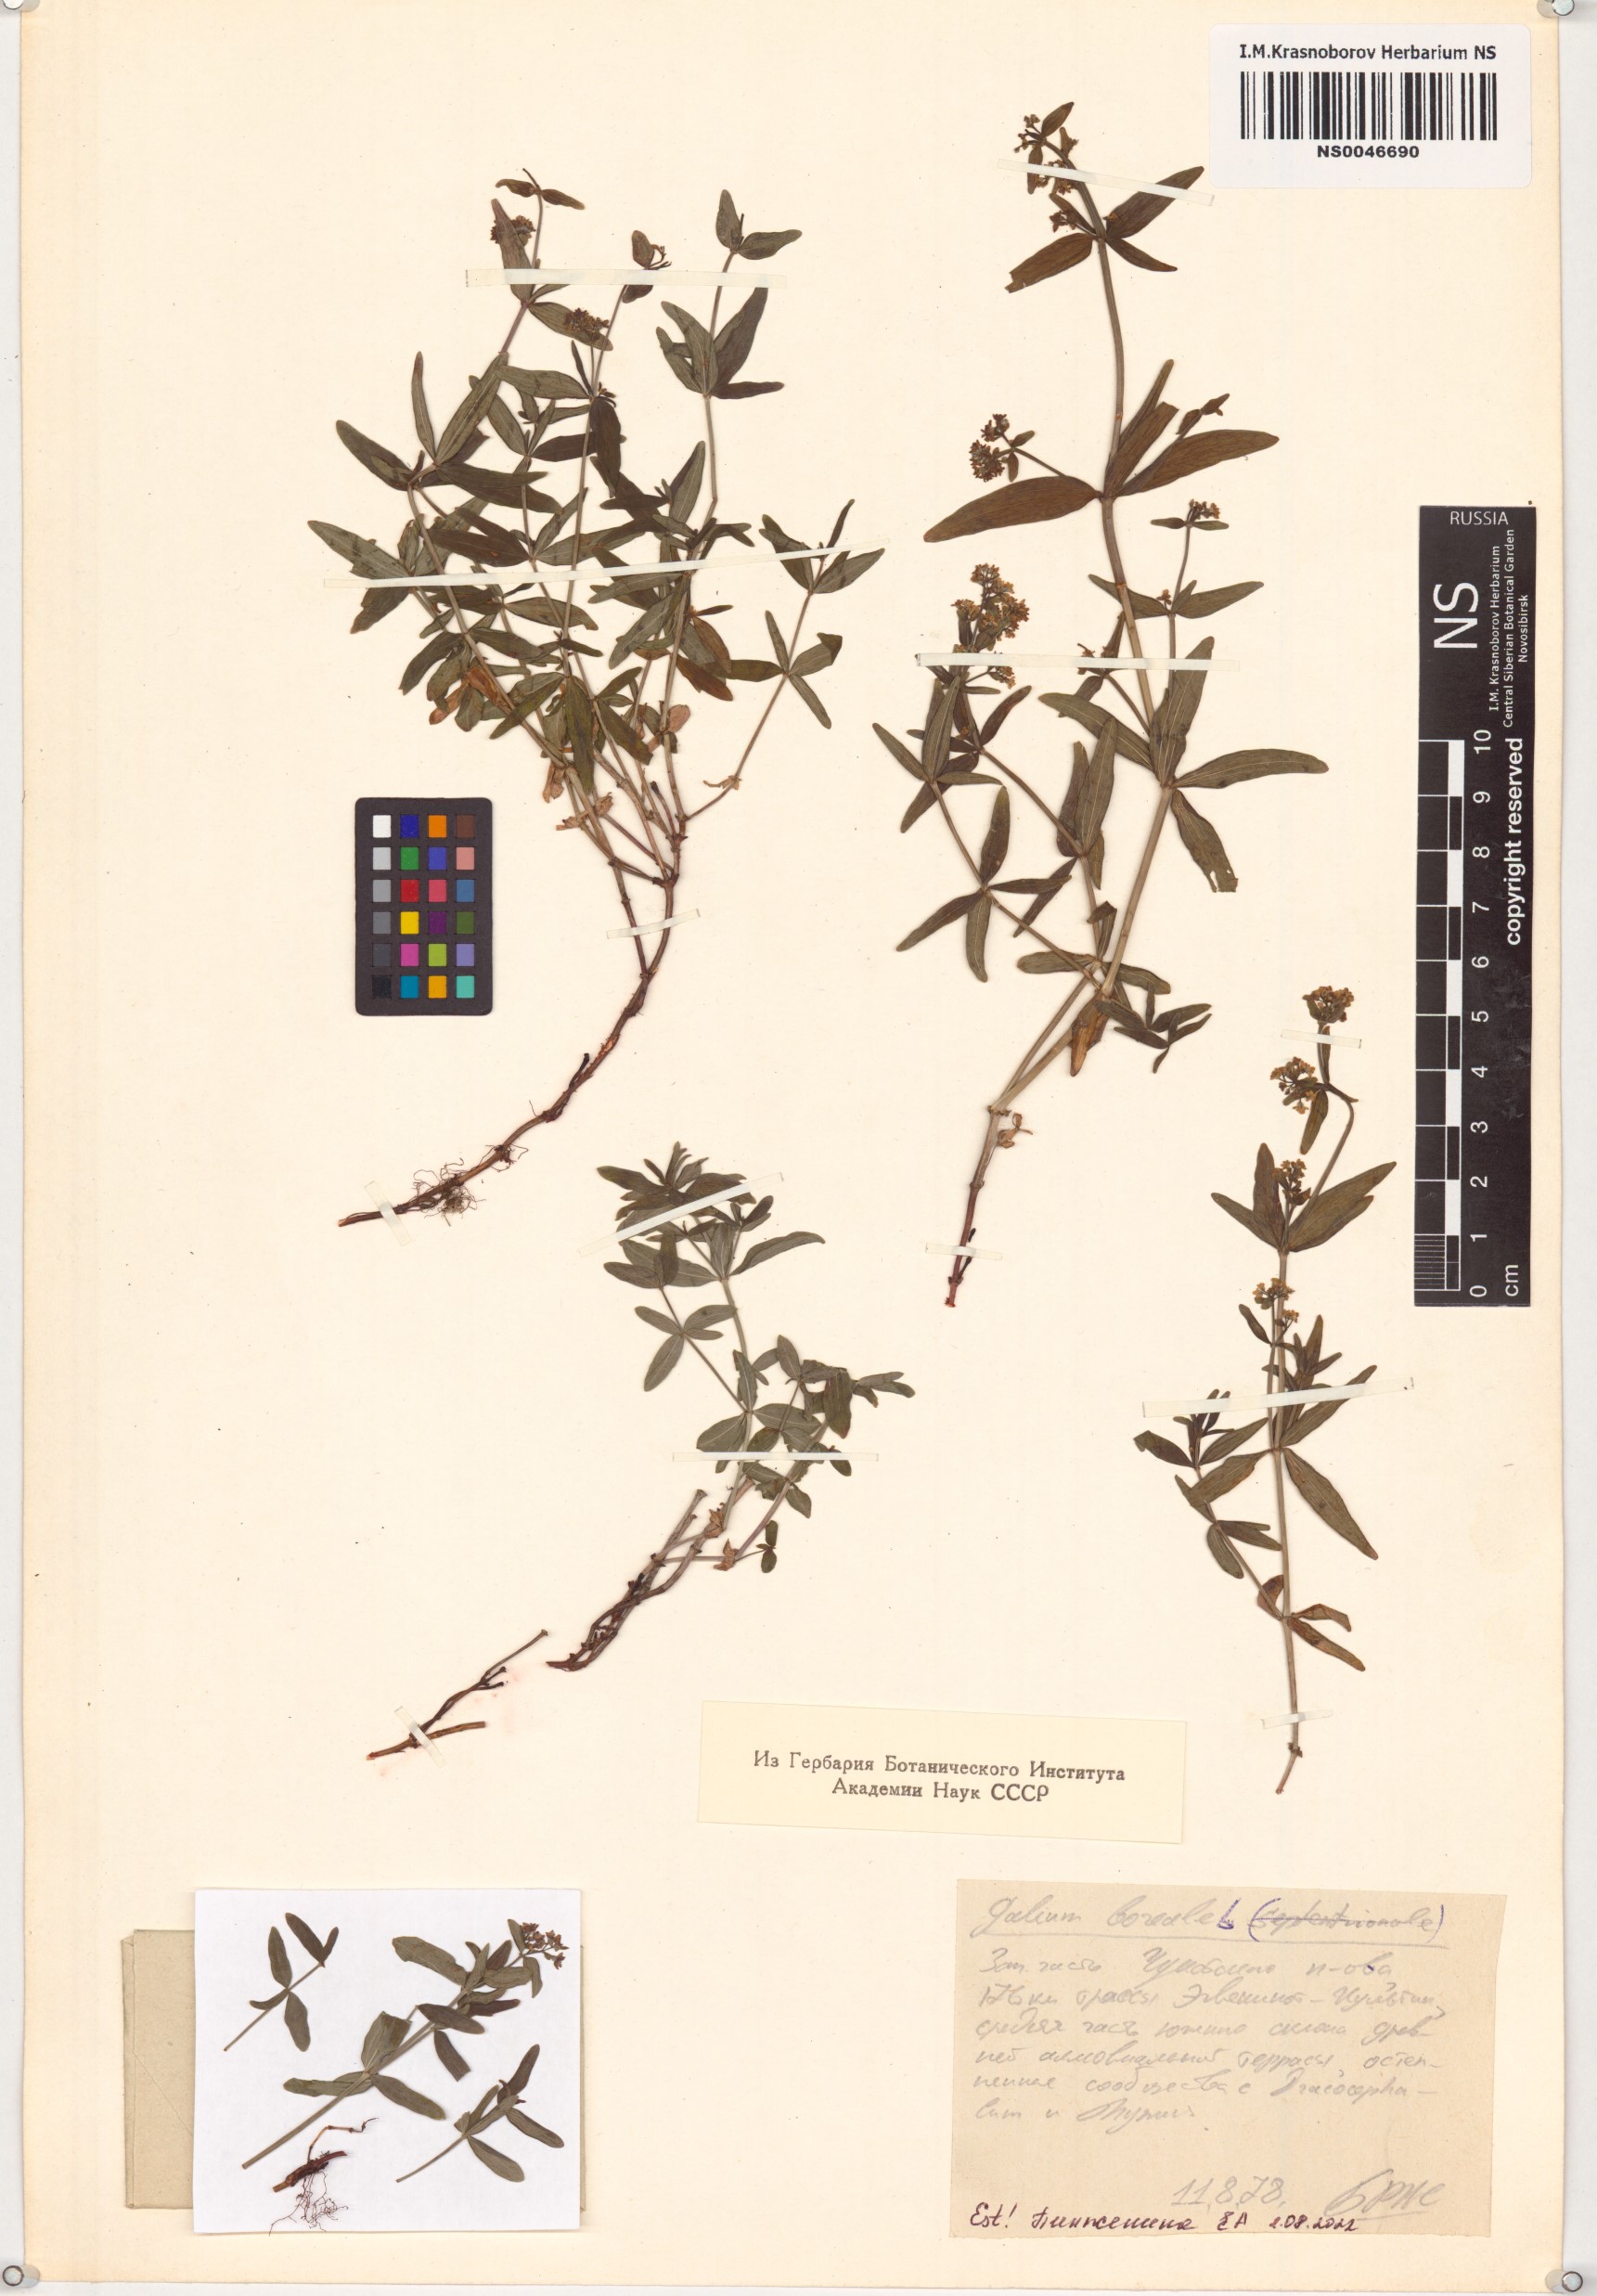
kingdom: Plantae
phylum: Tracheophyta
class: Magnoliopsida
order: Gentianales
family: Rubiaceae
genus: Galium
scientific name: Galium boreale
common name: Northern bedstraw
